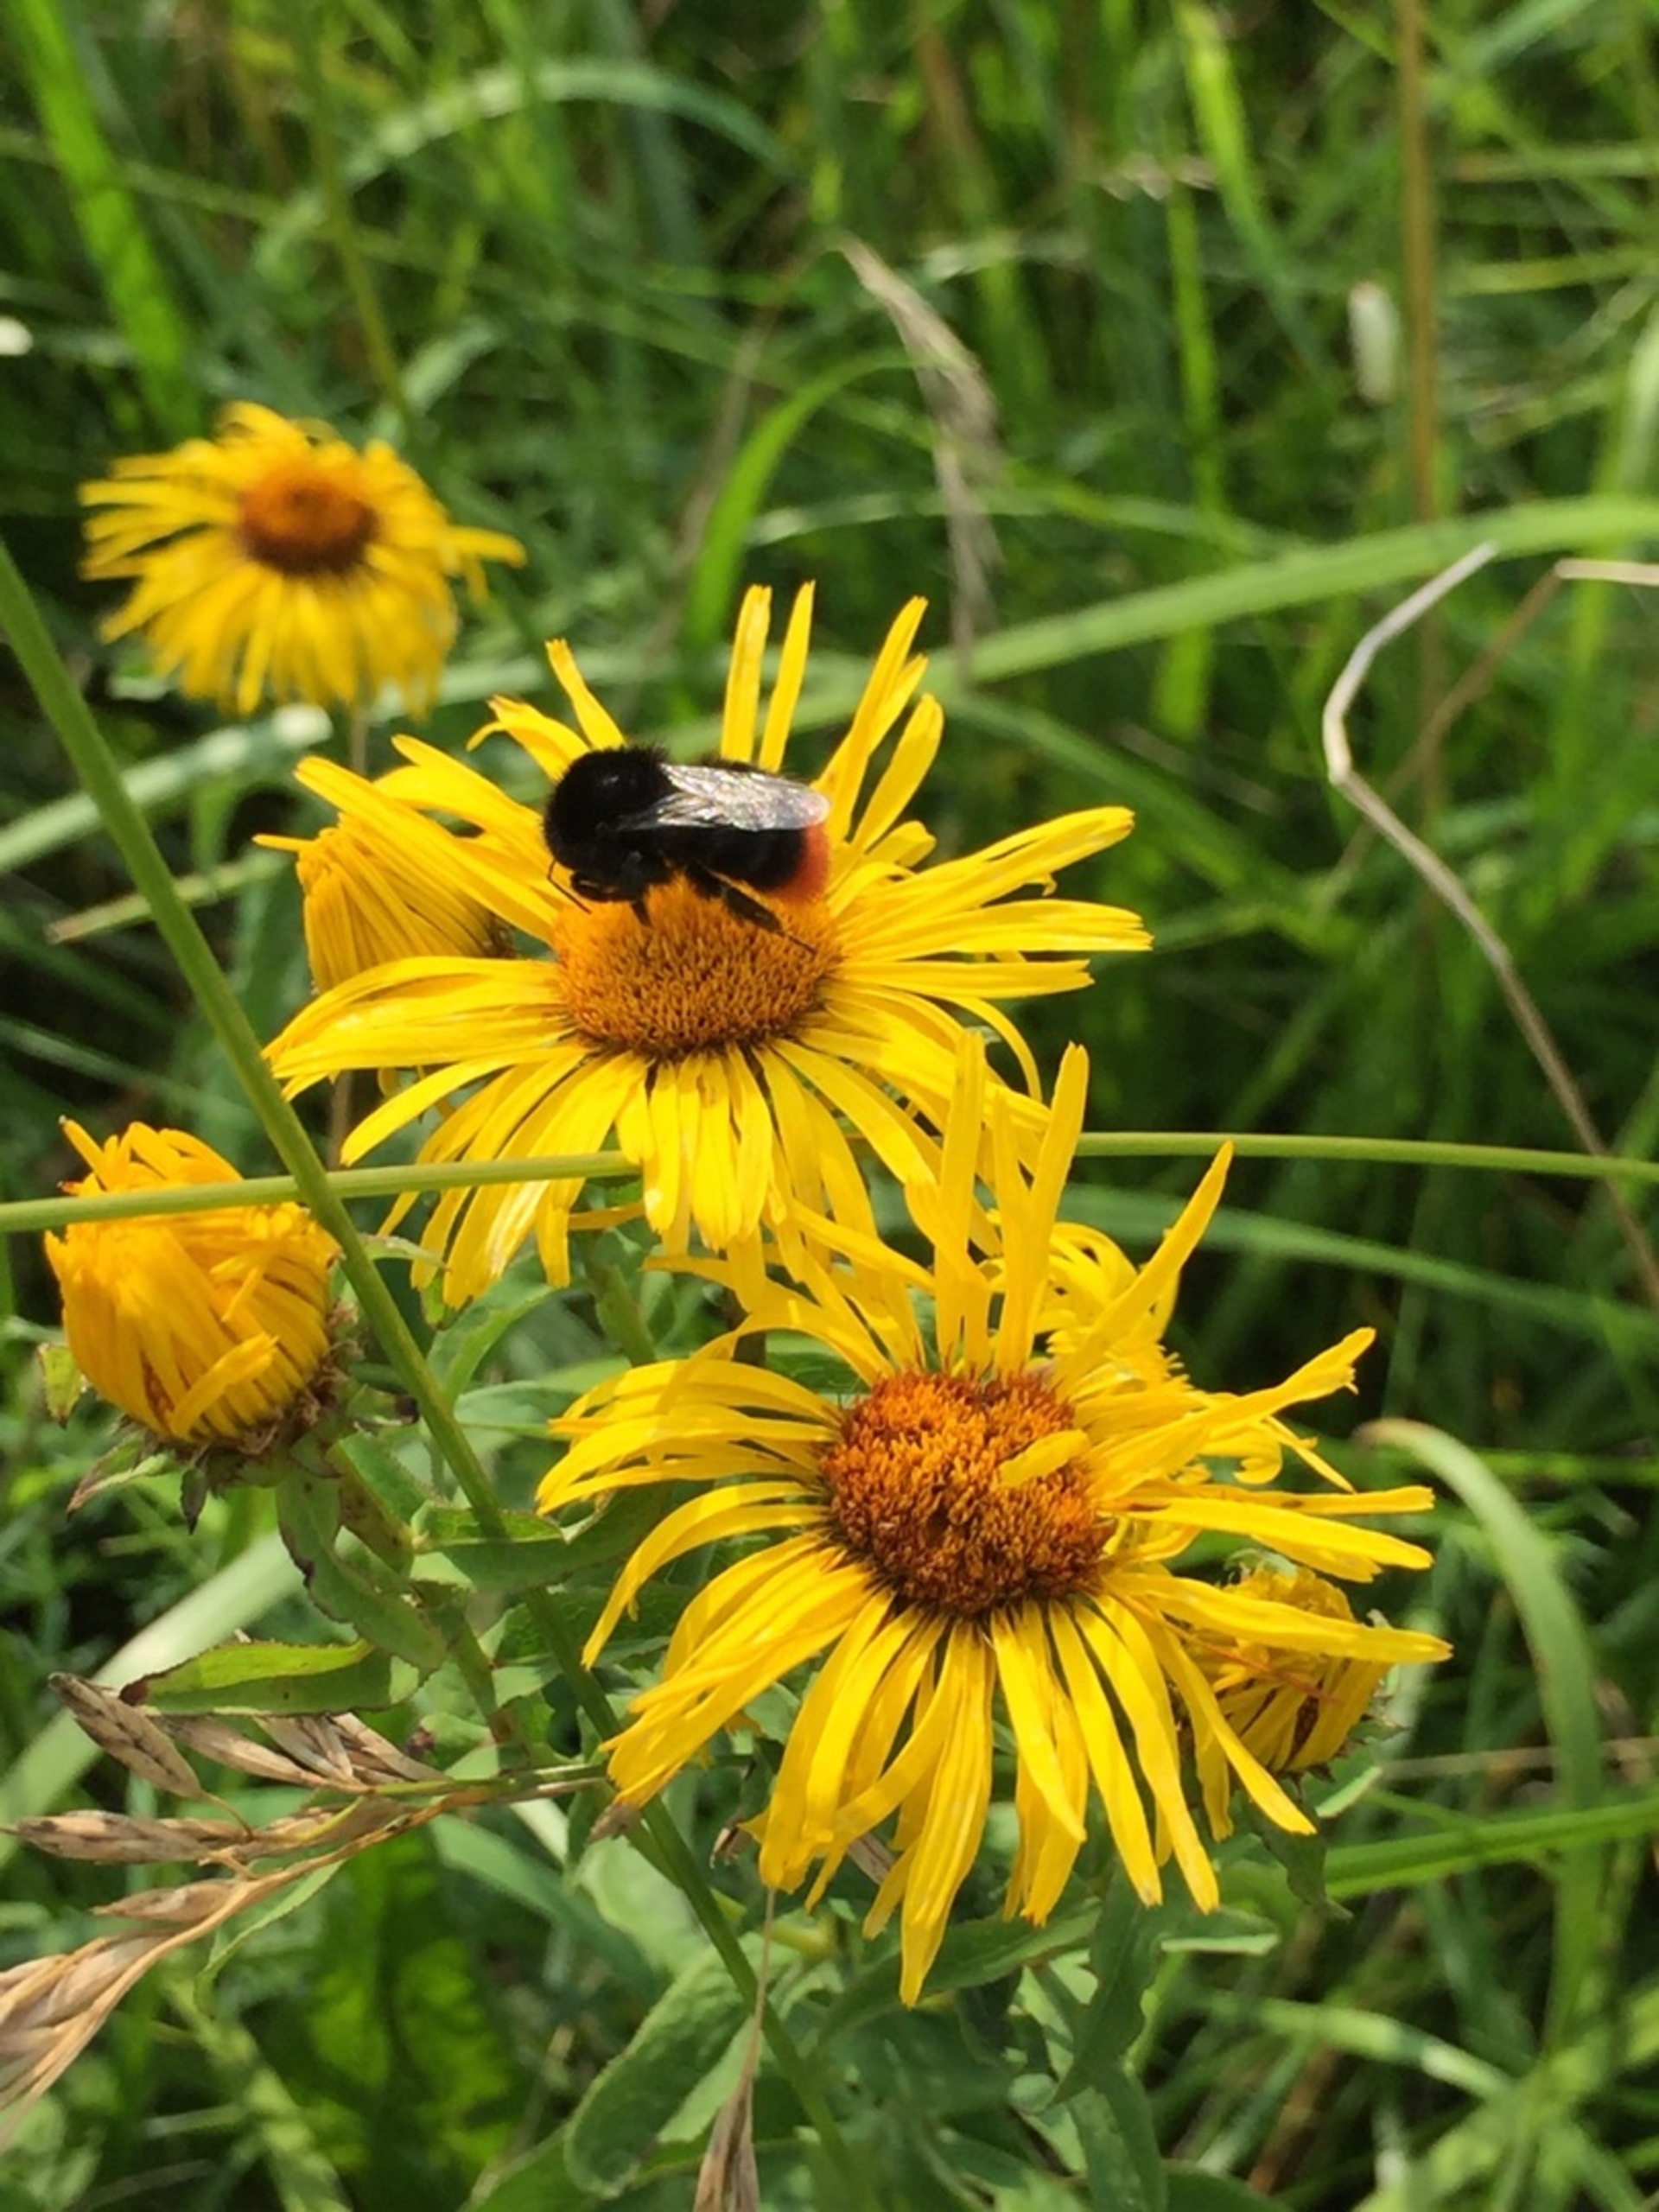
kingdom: Animalia
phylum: Arthropoda
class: Insecta
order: Hymenoptera
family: Apidae
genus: Bombus
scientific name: Bombus lapidarius
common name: Stenhumle
